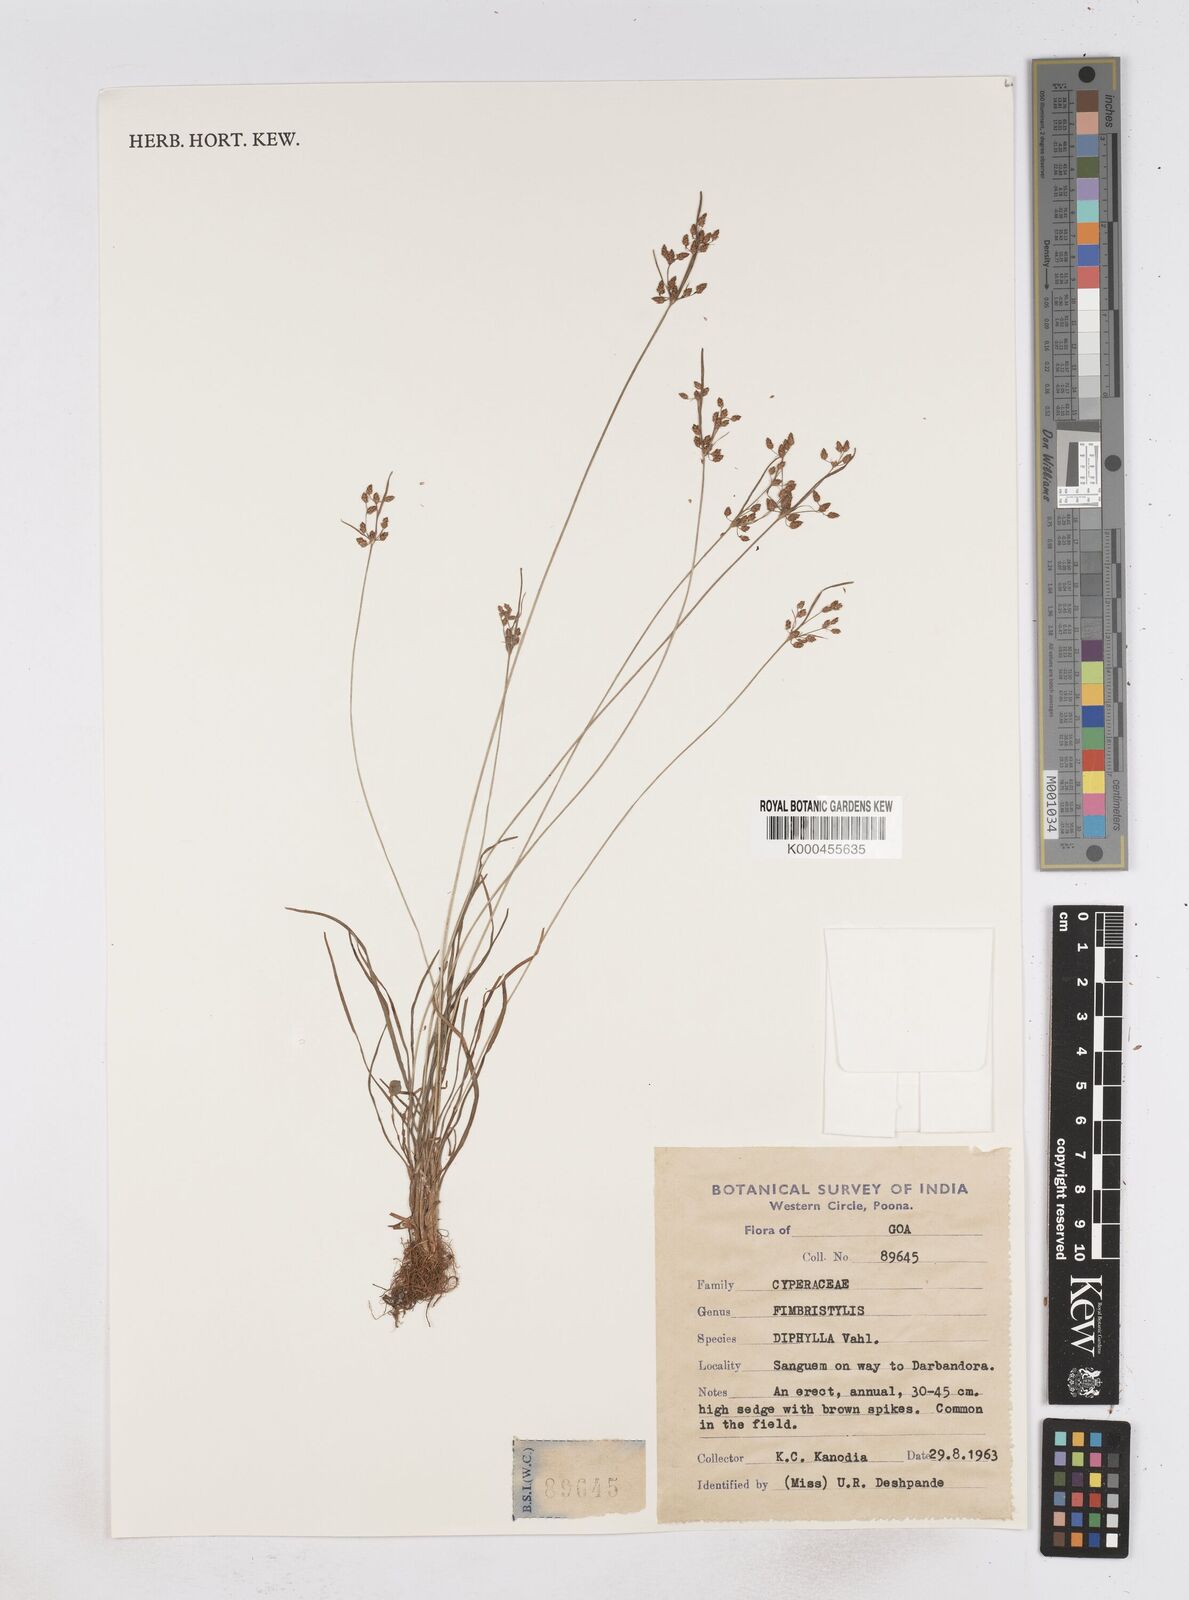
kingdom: Plantae
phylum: Tracheophyta
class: Liliopsida
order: Poales
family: Cyperaceae
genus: Fimbristylis
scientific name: Fimbristylis dichotoma
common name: Forked fimbry
